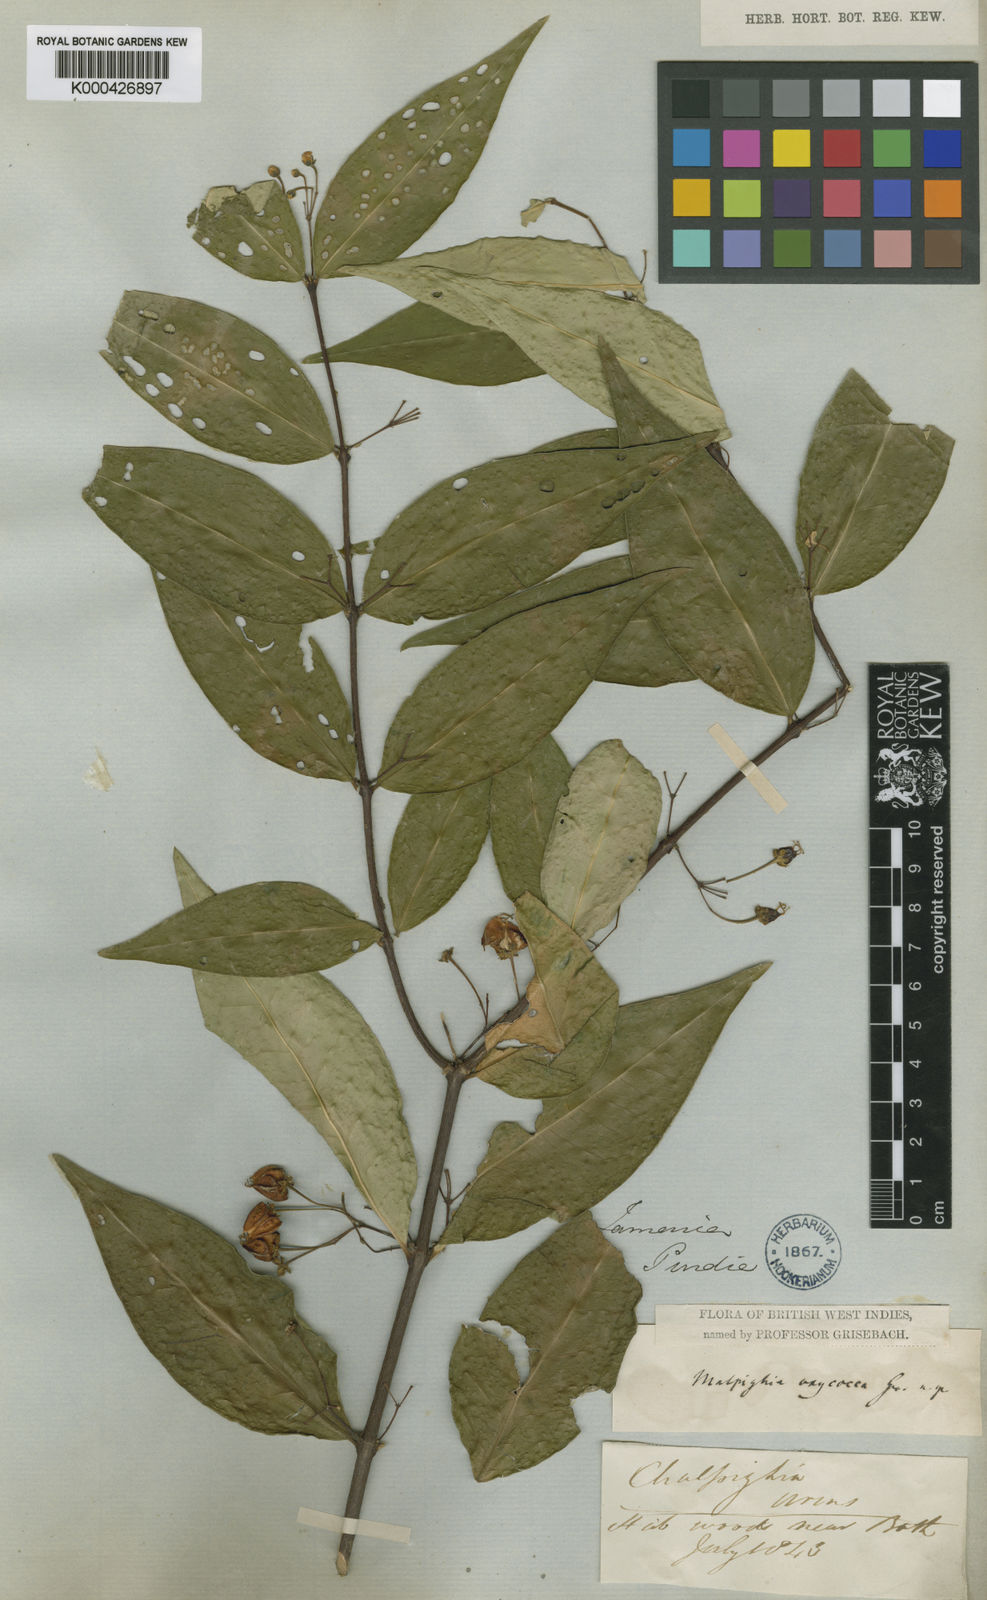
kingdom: Plantae
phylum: Tracheophyta
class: Magnoliopsida
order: Malpighiales
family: Malpighiaceae
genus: Malpighia
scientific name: Malpighia glabra
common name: Barbados cherry
